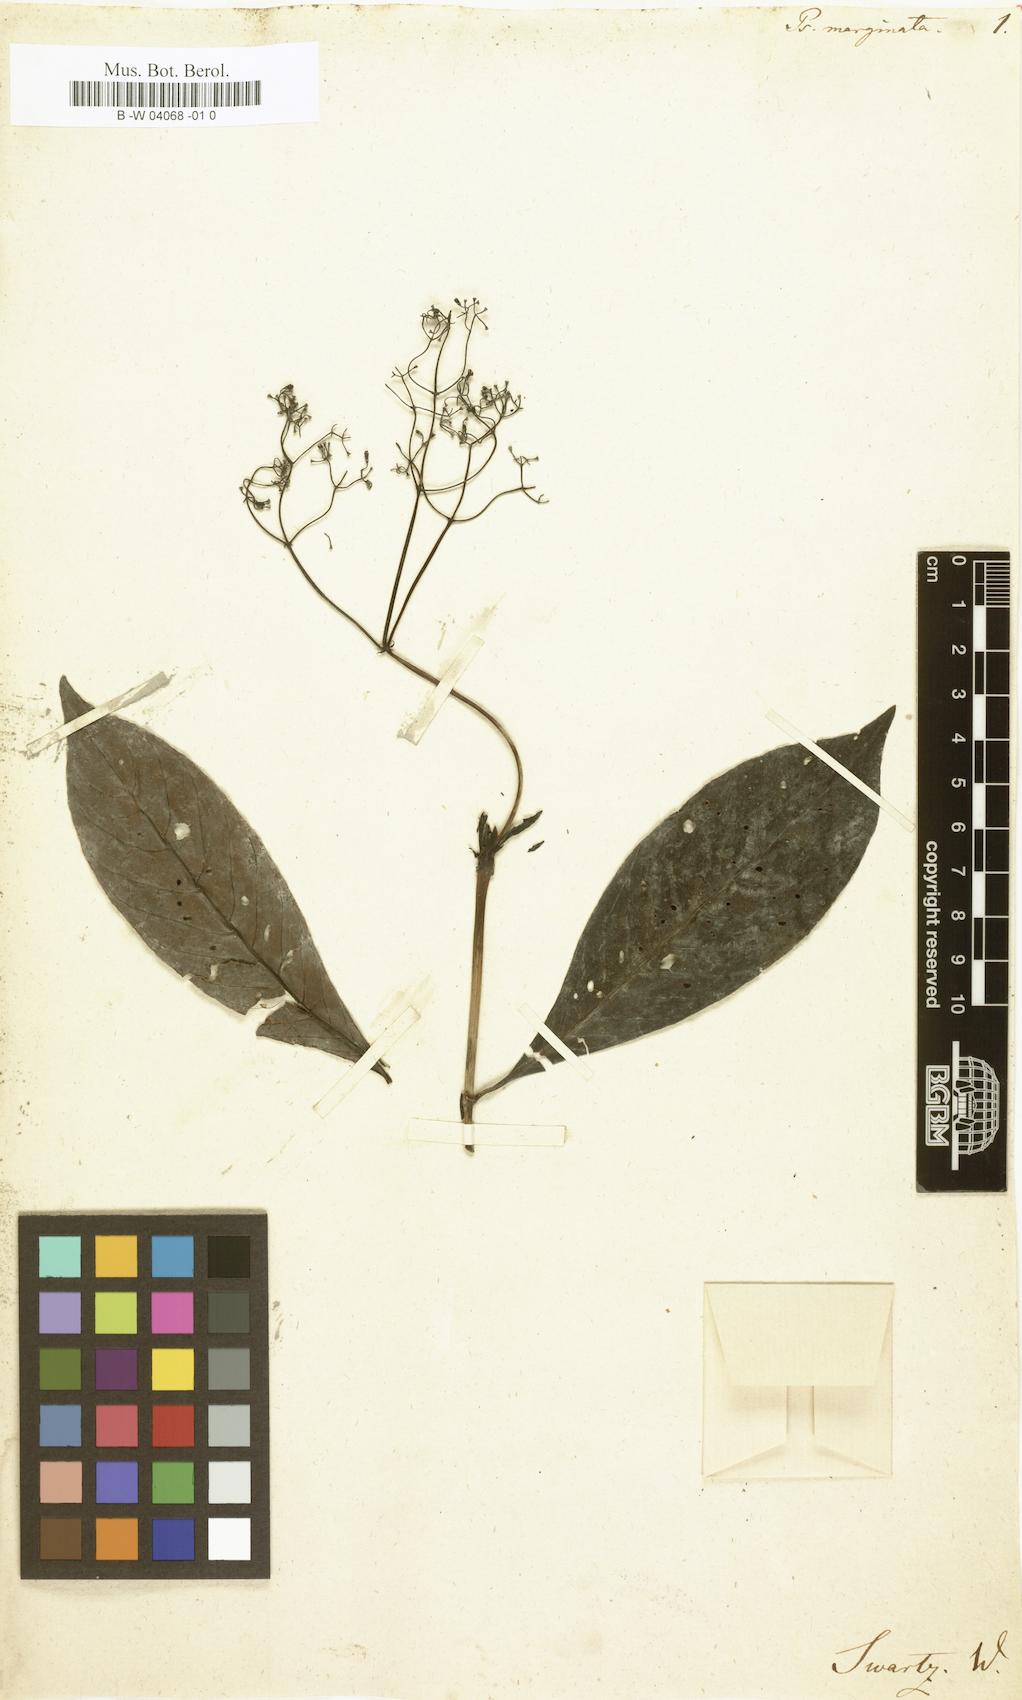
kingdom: Plantae
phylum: Tracheophyta
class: Magnoliopsida
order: Gentianales
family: Rubiaceae
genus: Psychotria
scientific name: Psychotria marginata
